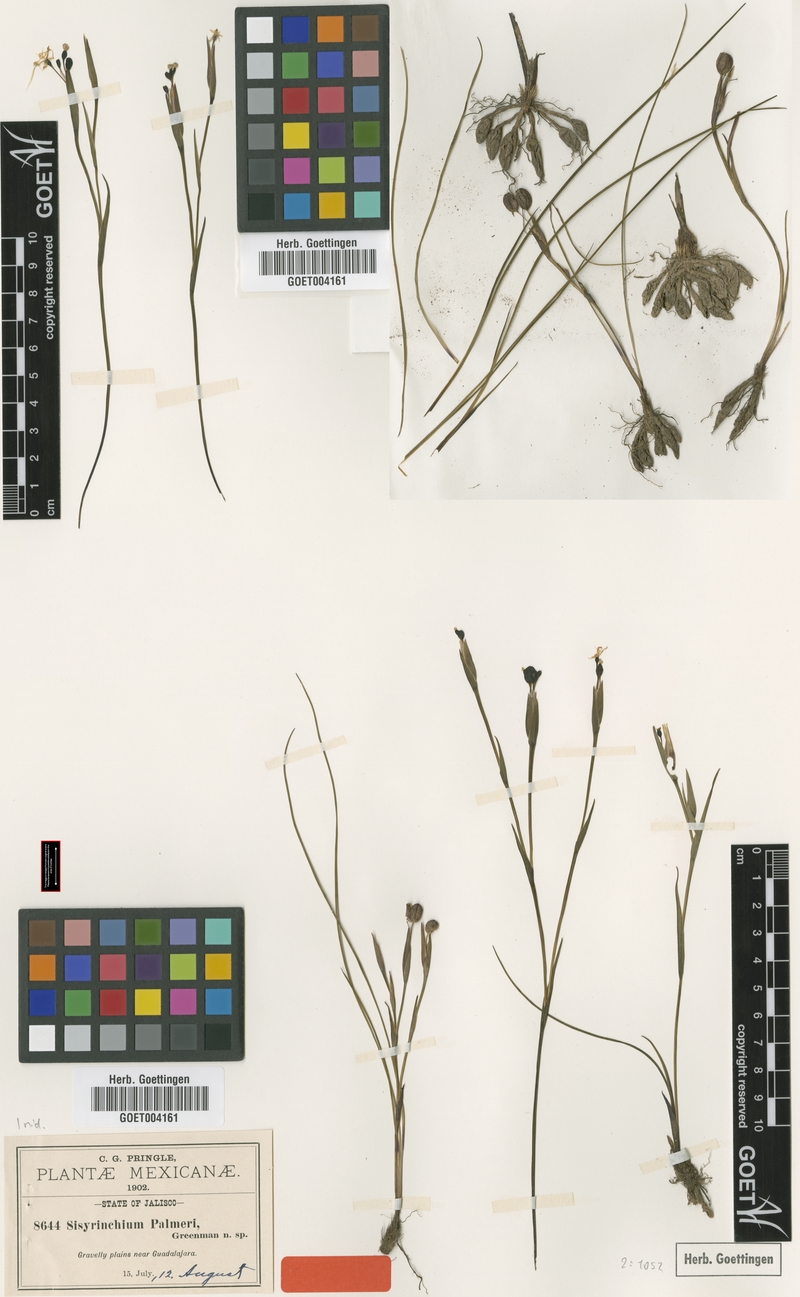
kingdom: Plantae
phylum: Tracheophyta
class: Liliopsida
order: Asparagales
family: Iridaceae
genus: Sisyrinchium
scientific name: Sisyrinchium tolucense
